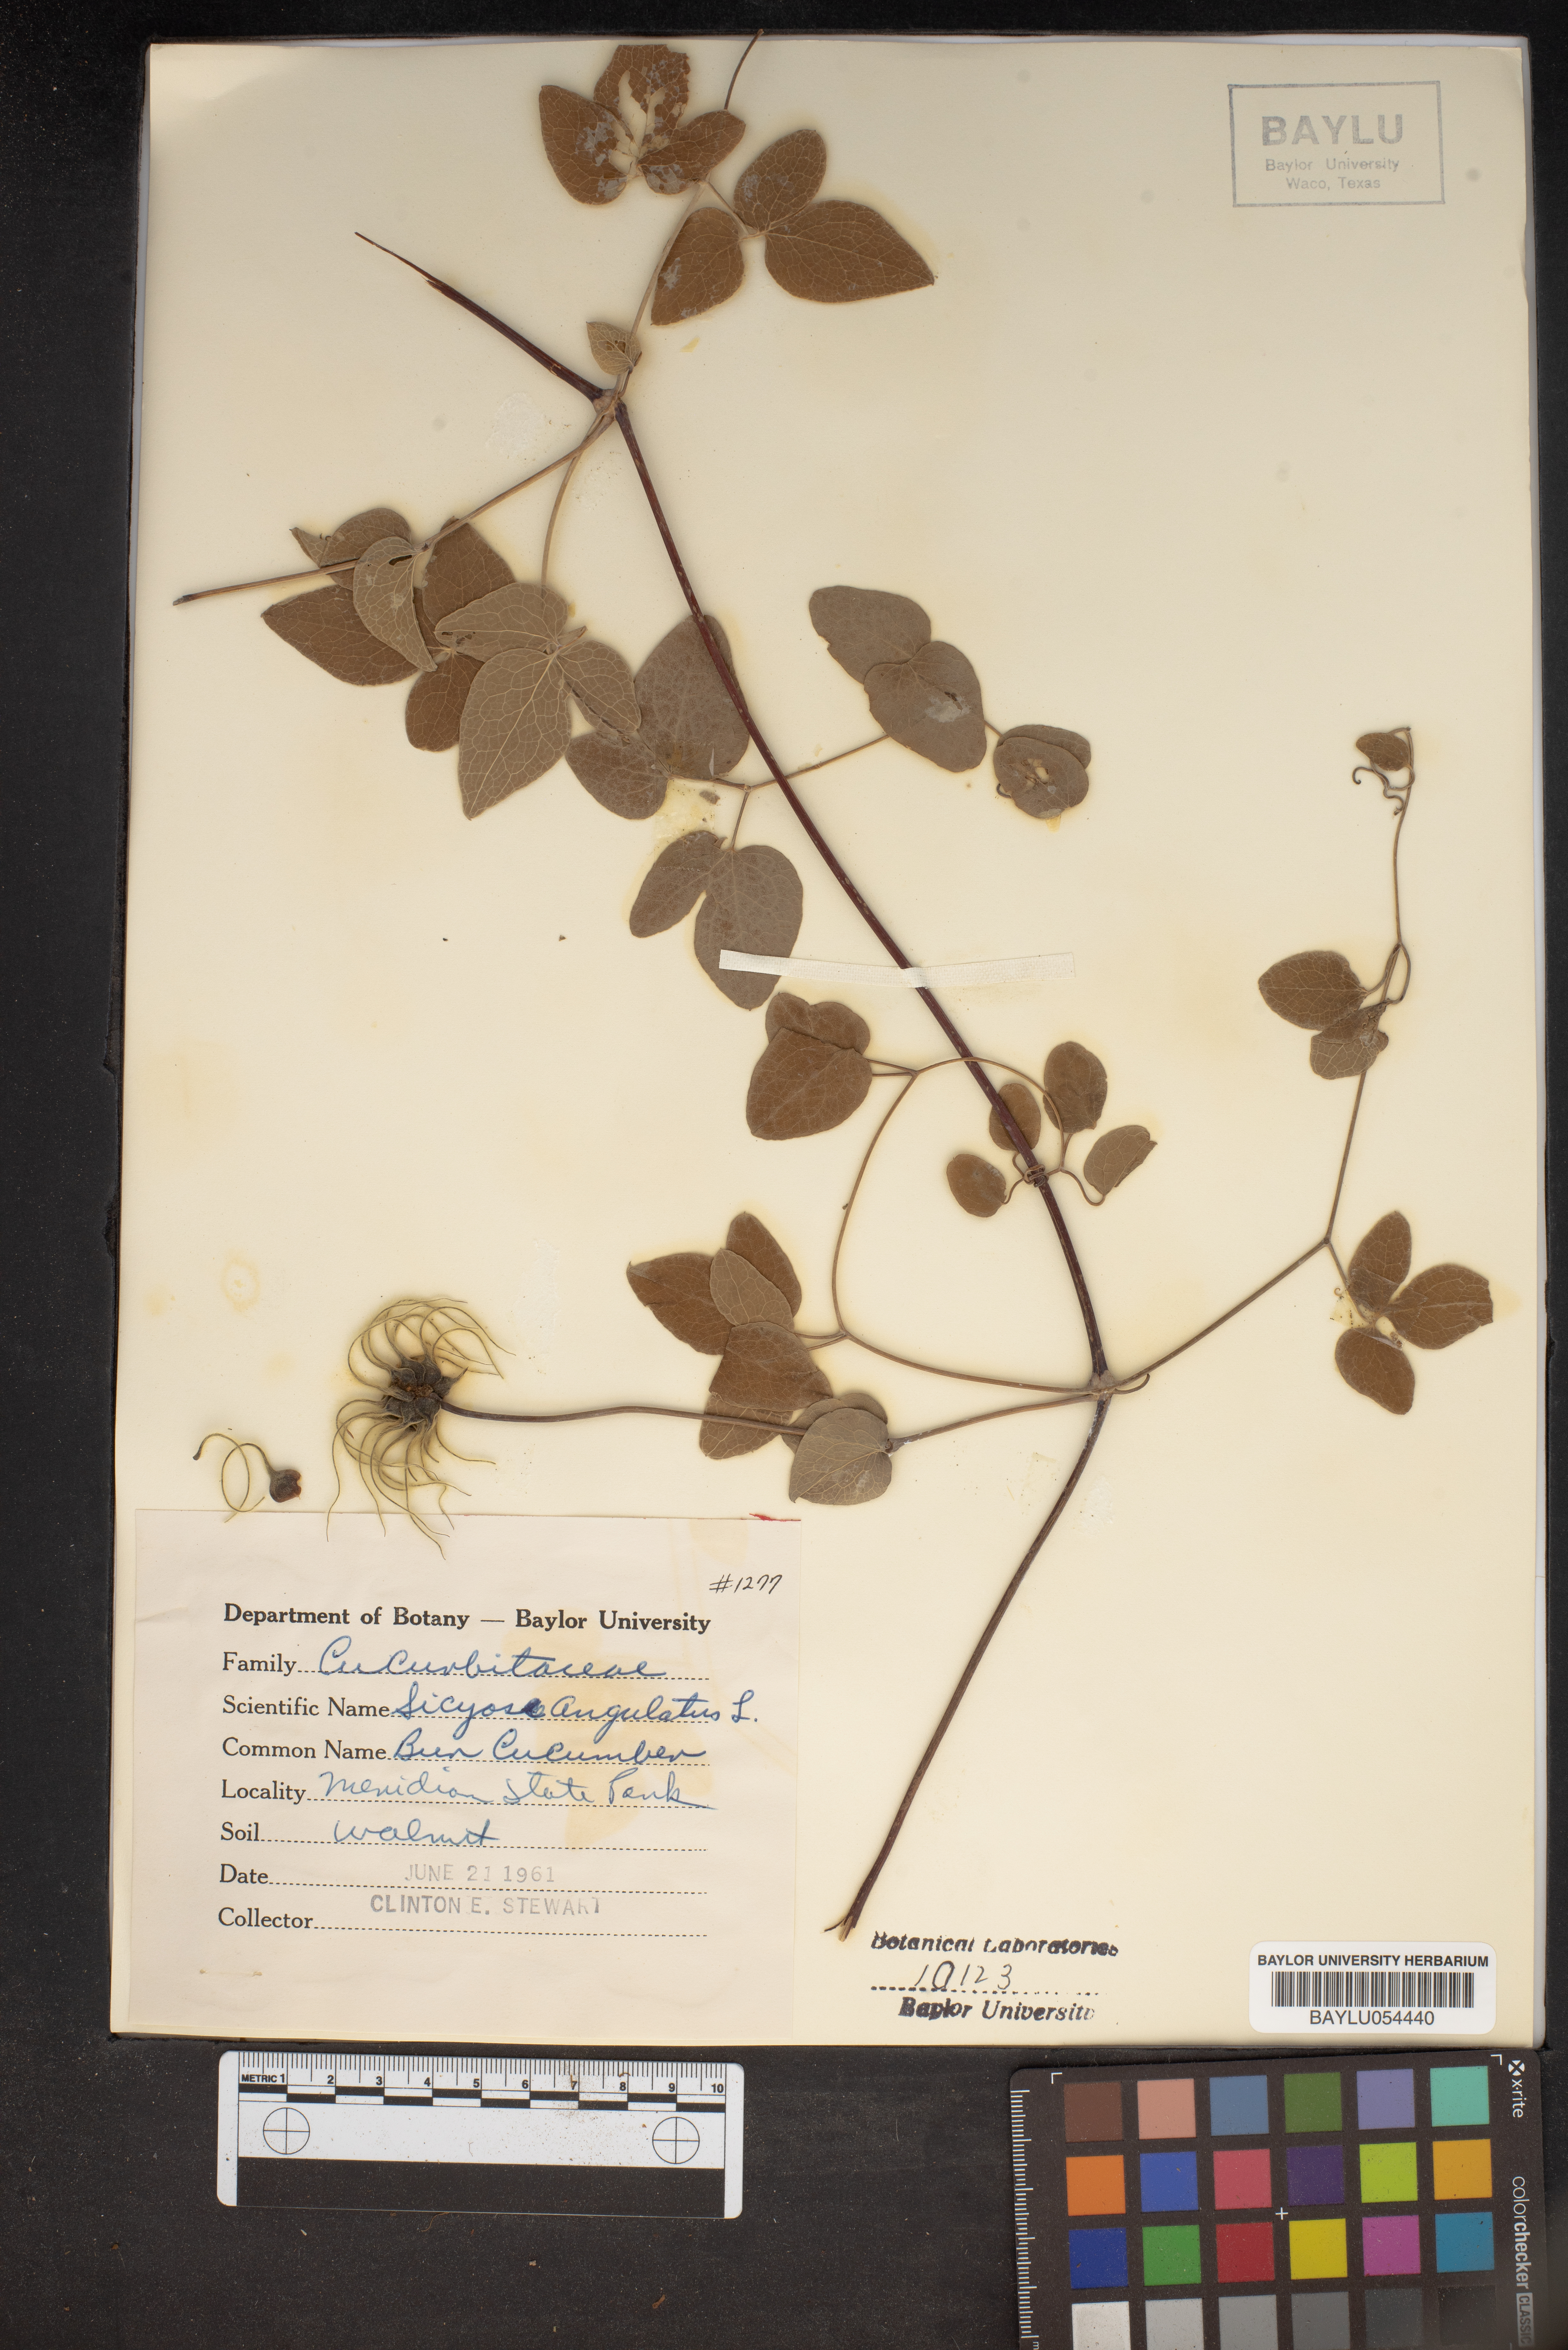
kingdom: Plantae
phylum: Tracheophyta
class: Magnoliopsida
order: Cucurbitales
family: Cucurbitaceae
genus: Sicyos
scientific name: Sicyos angulatus
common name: Angled burr cucumber
